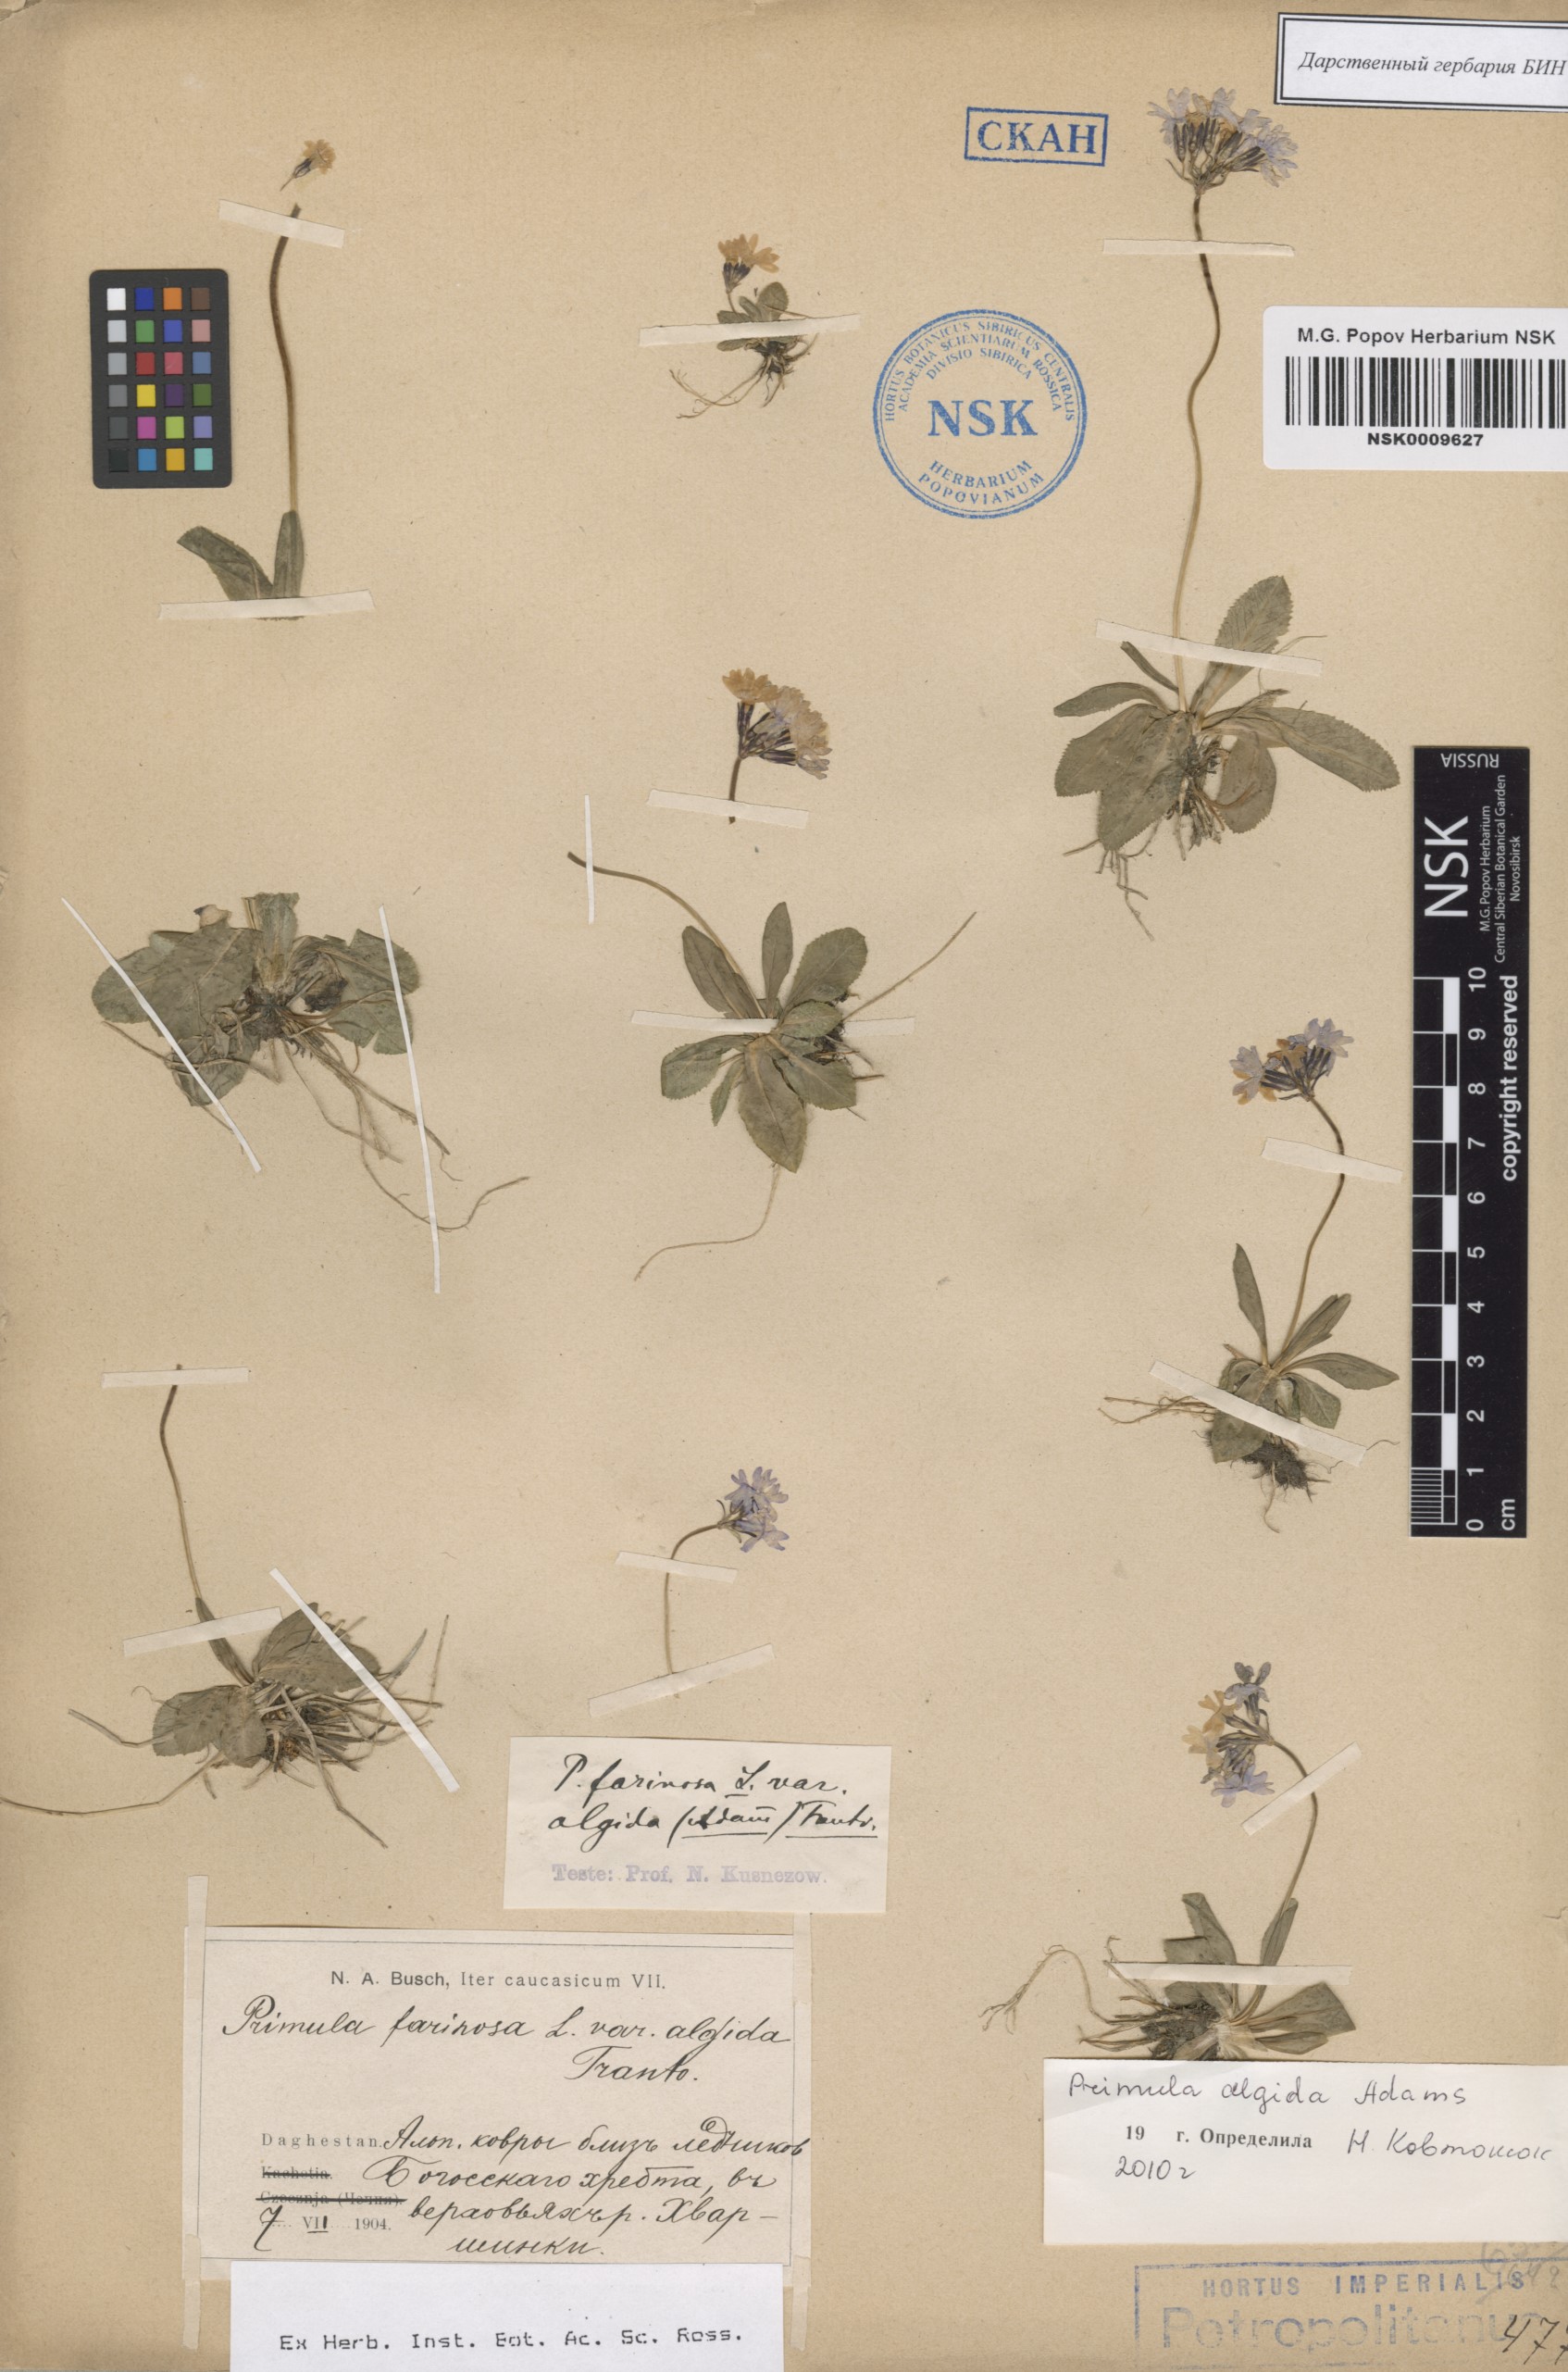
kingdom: Plantae
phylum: Tracheophyta
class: Magnoliopsida
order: Ericales
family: Primulaceae
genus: Primula
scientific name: Primula algida
